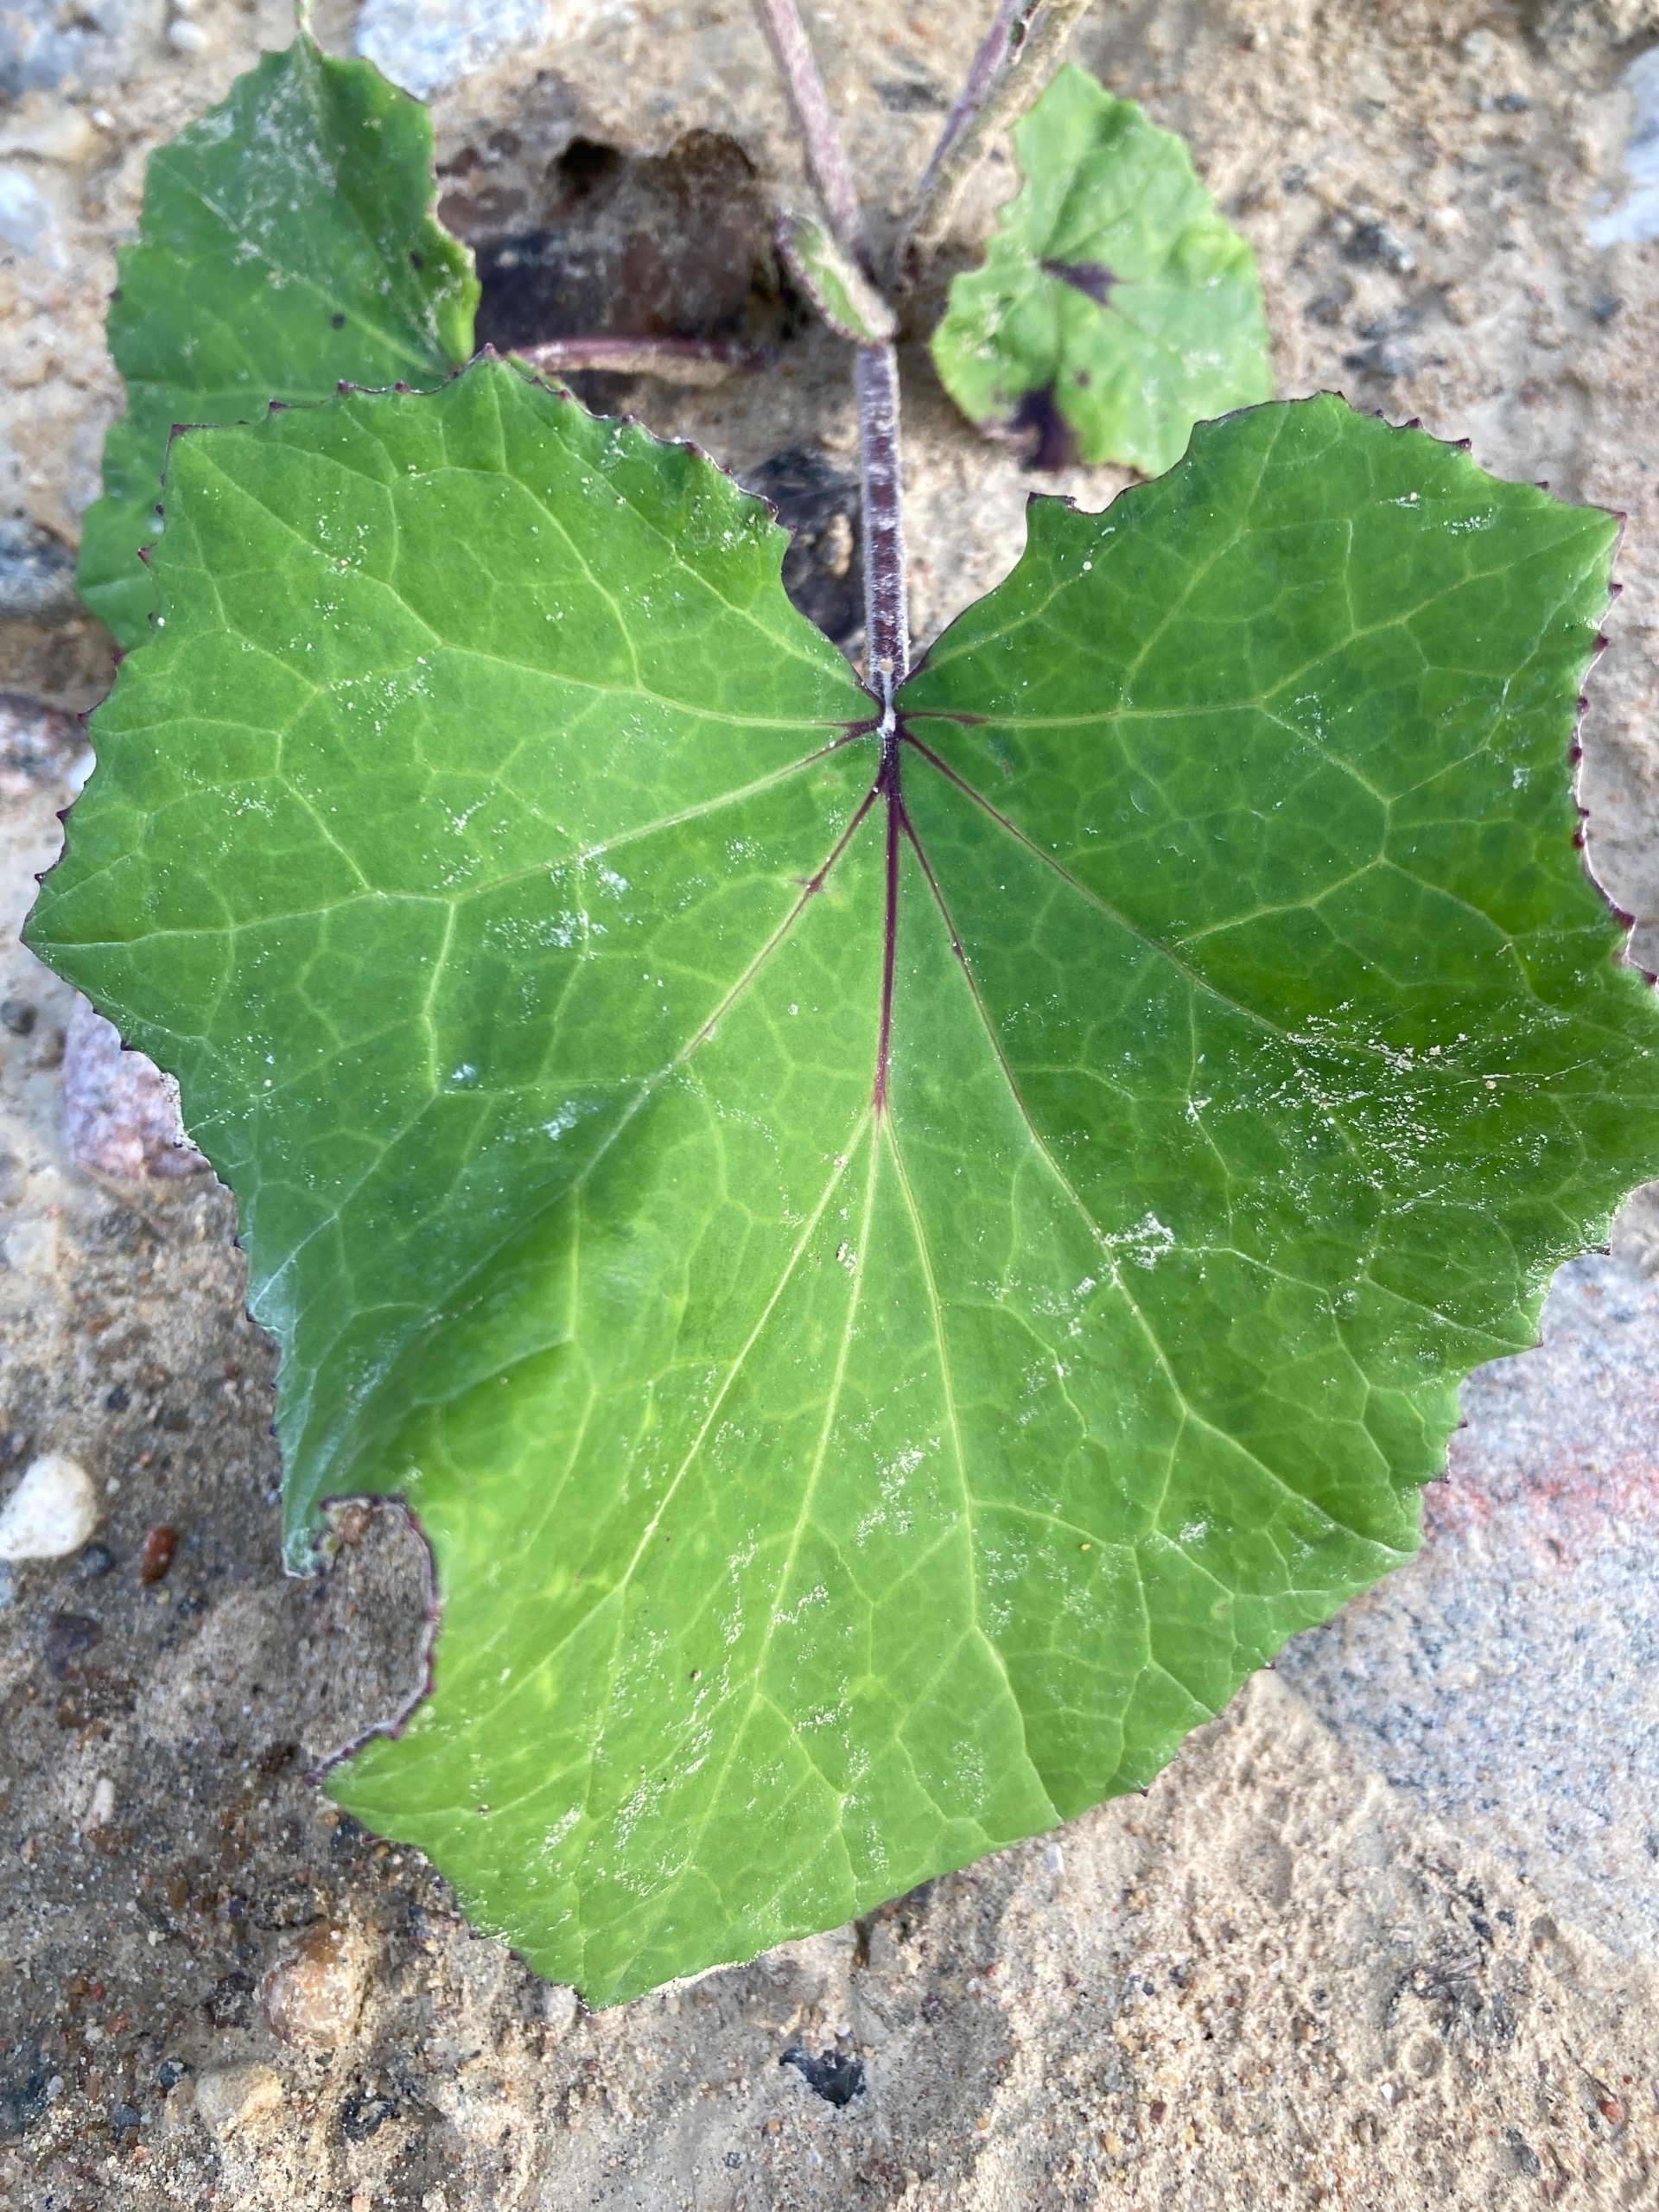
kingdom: Plantae
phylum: Tracheophyta
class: Magnoliopsida
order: Asterales
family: Asteraceae
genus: Tussilago
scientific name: Tussilago farfara
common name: Følfod
